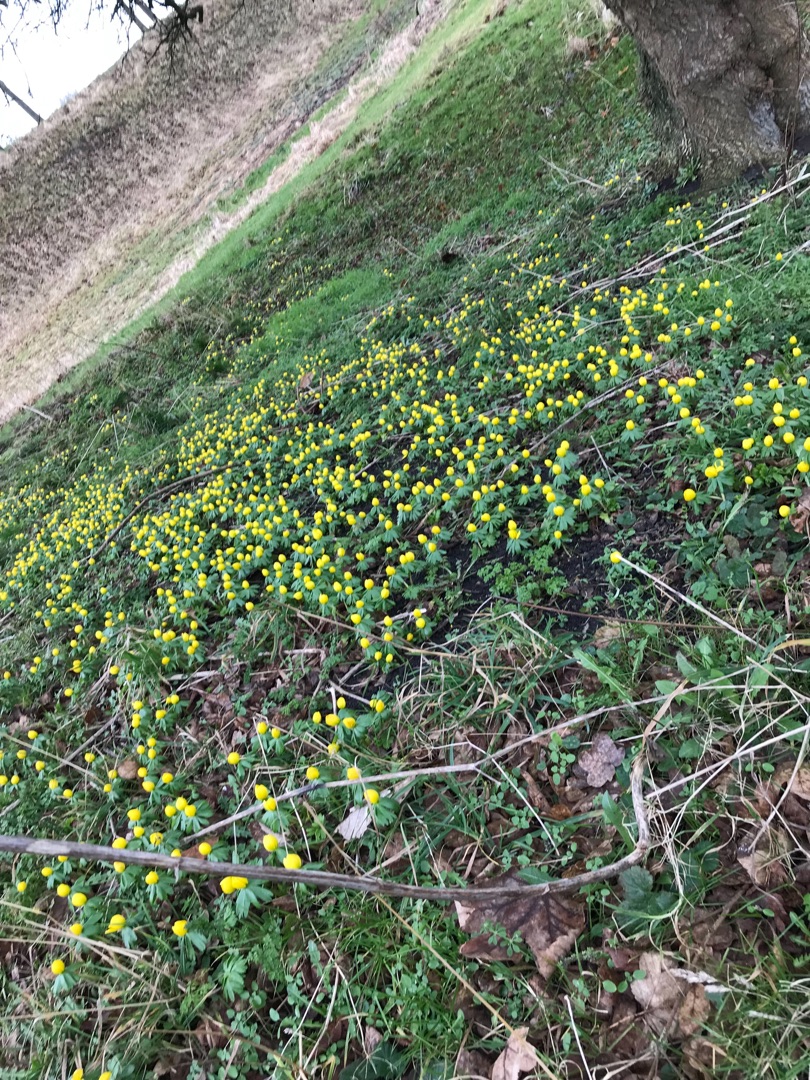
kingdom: Plantae
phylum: Tracheophyta
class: Magnoliopsida
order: Ranunculales
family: Ranunculaceae
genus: Eranthis
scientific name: Eranthis hyemalis
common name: Erantis
